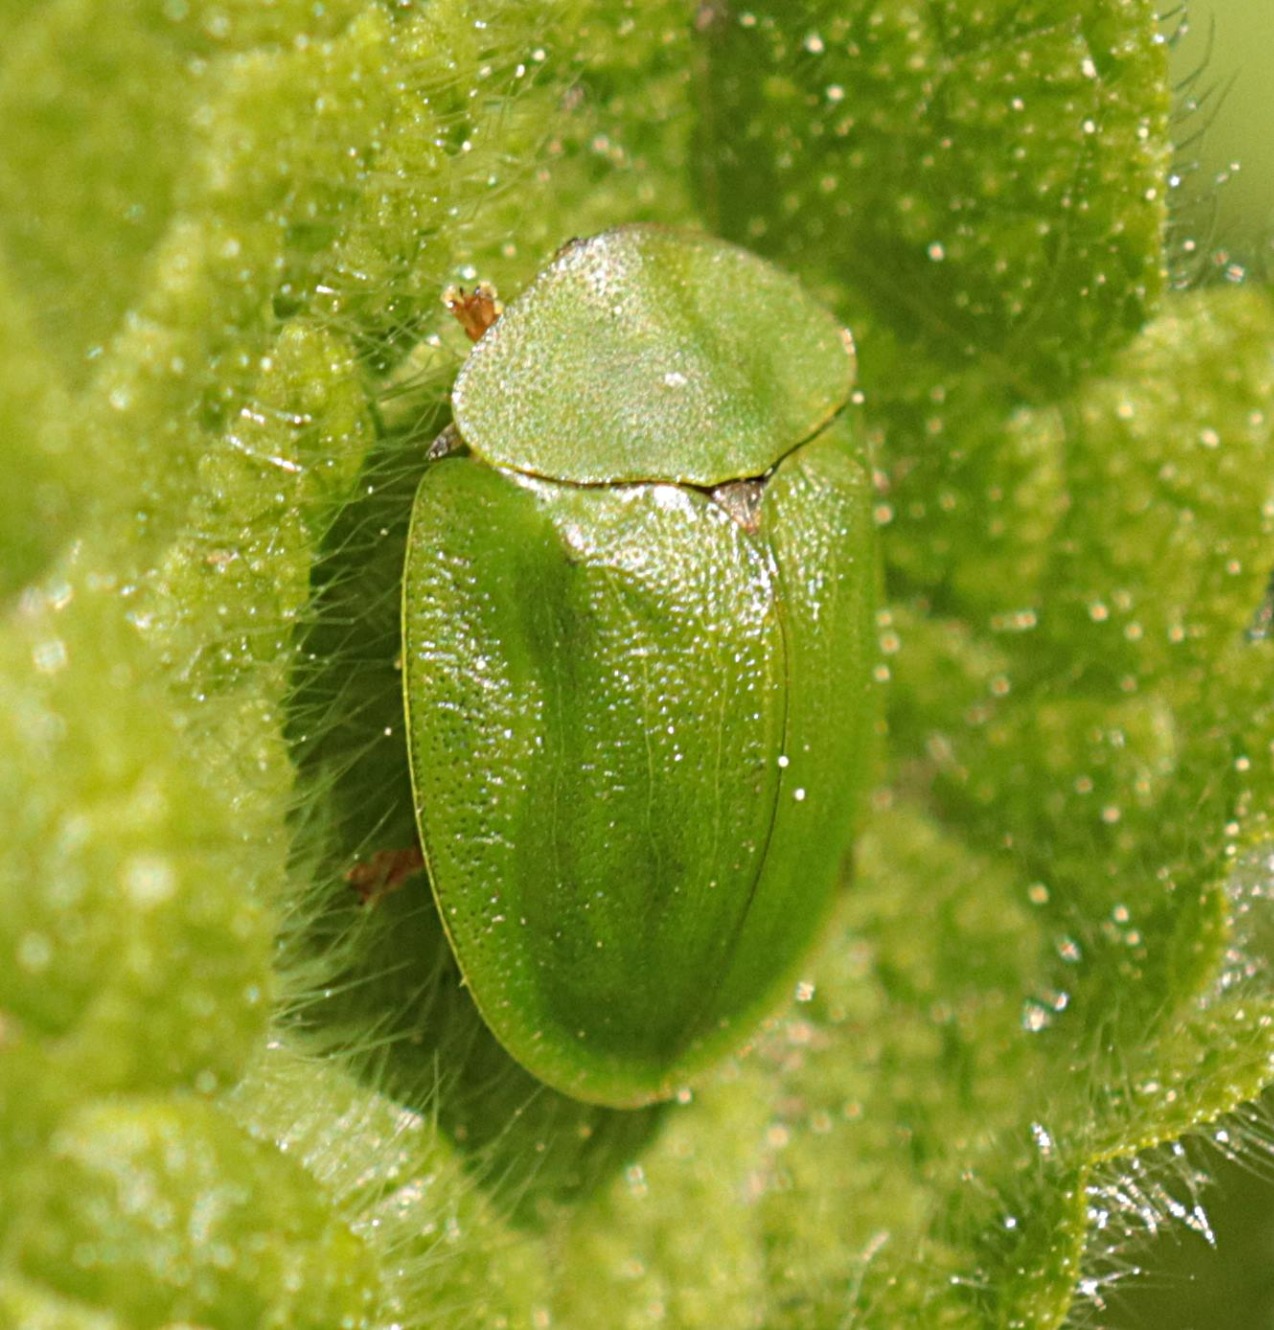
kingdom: Animalia
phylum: Arthropoda
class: Insecta
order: Coleoptera
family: Chrysomelidae
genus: Cassida
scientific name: Cassida viridis
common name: Stor skjoldbille
